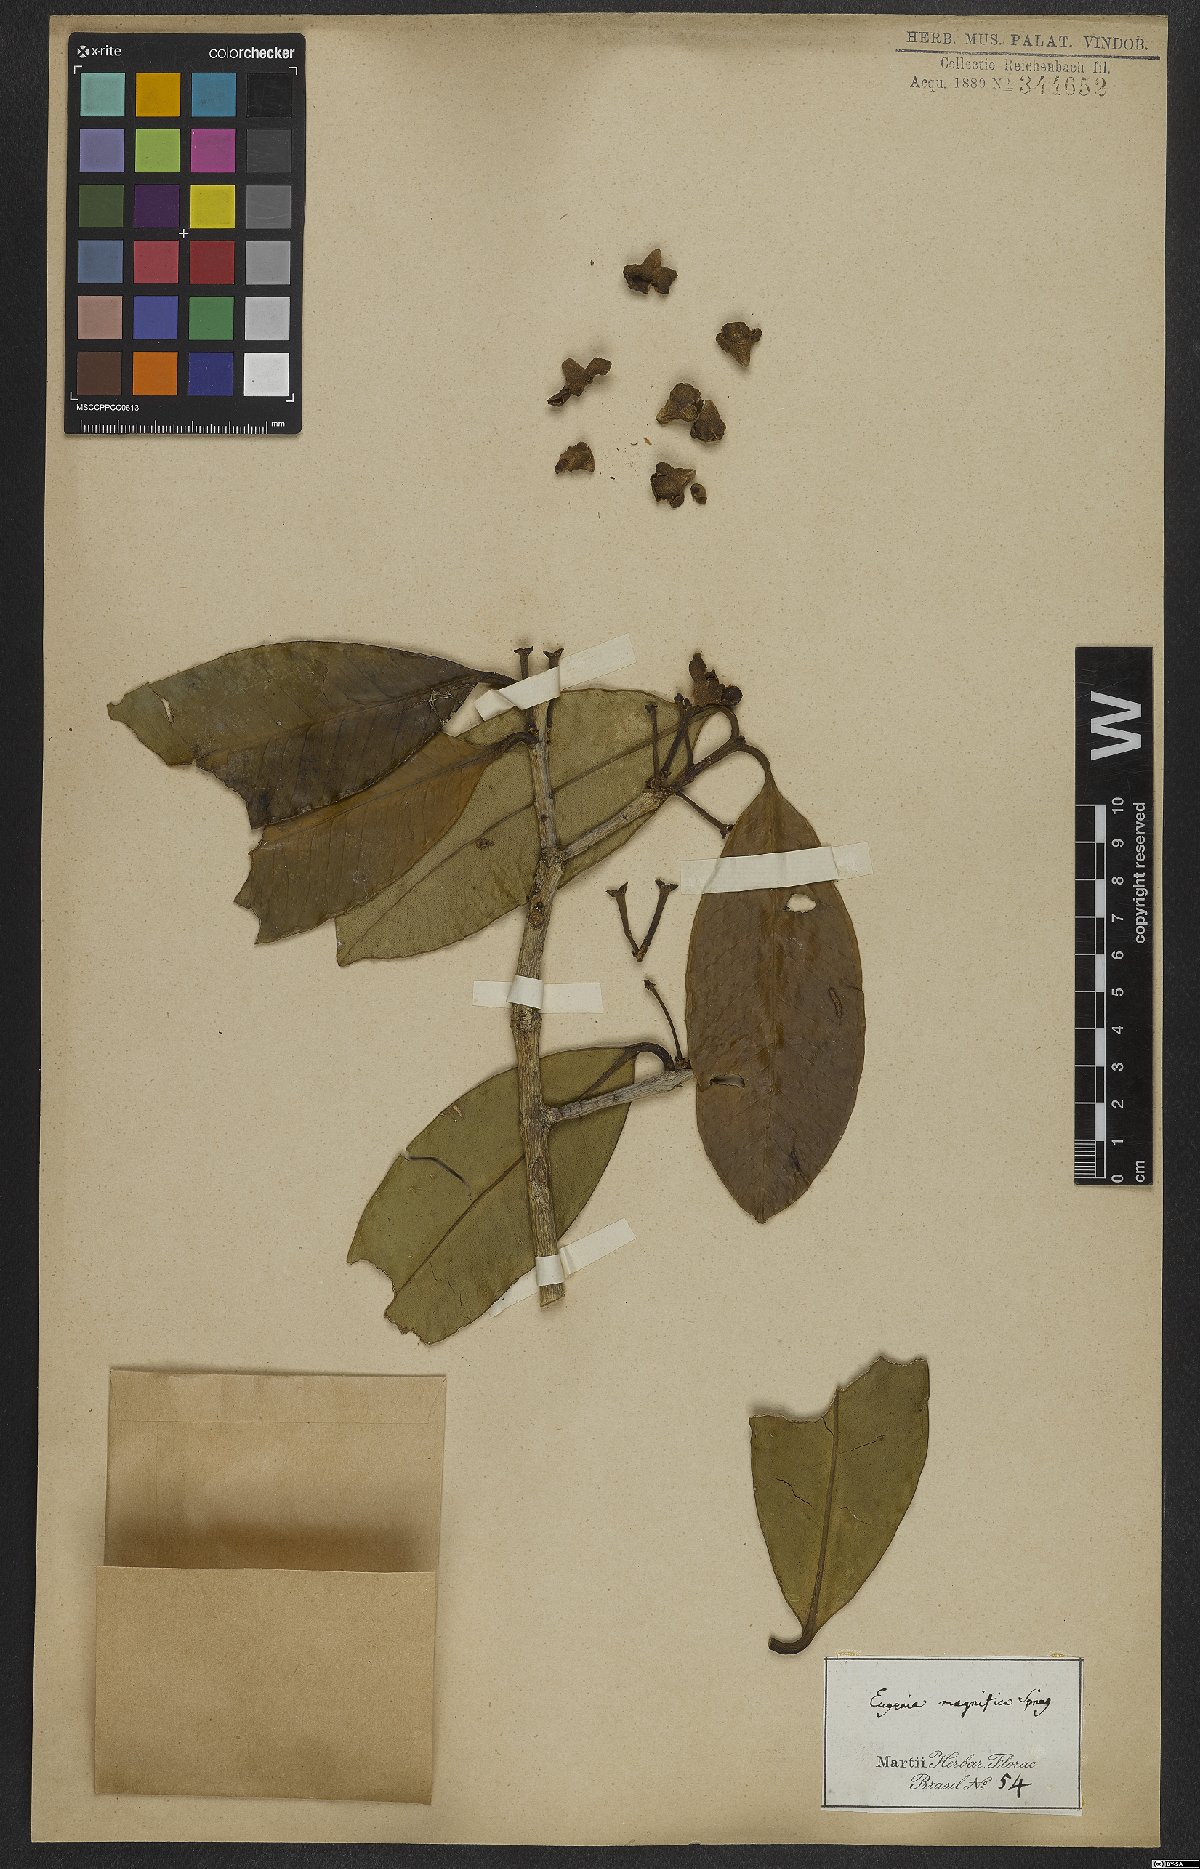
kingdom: Plantae
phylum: Tracheophyta
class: Magnoliopsida
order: Myrtales
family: Myrtaceae
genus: Eugenia
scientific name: Eugenia magnifica
